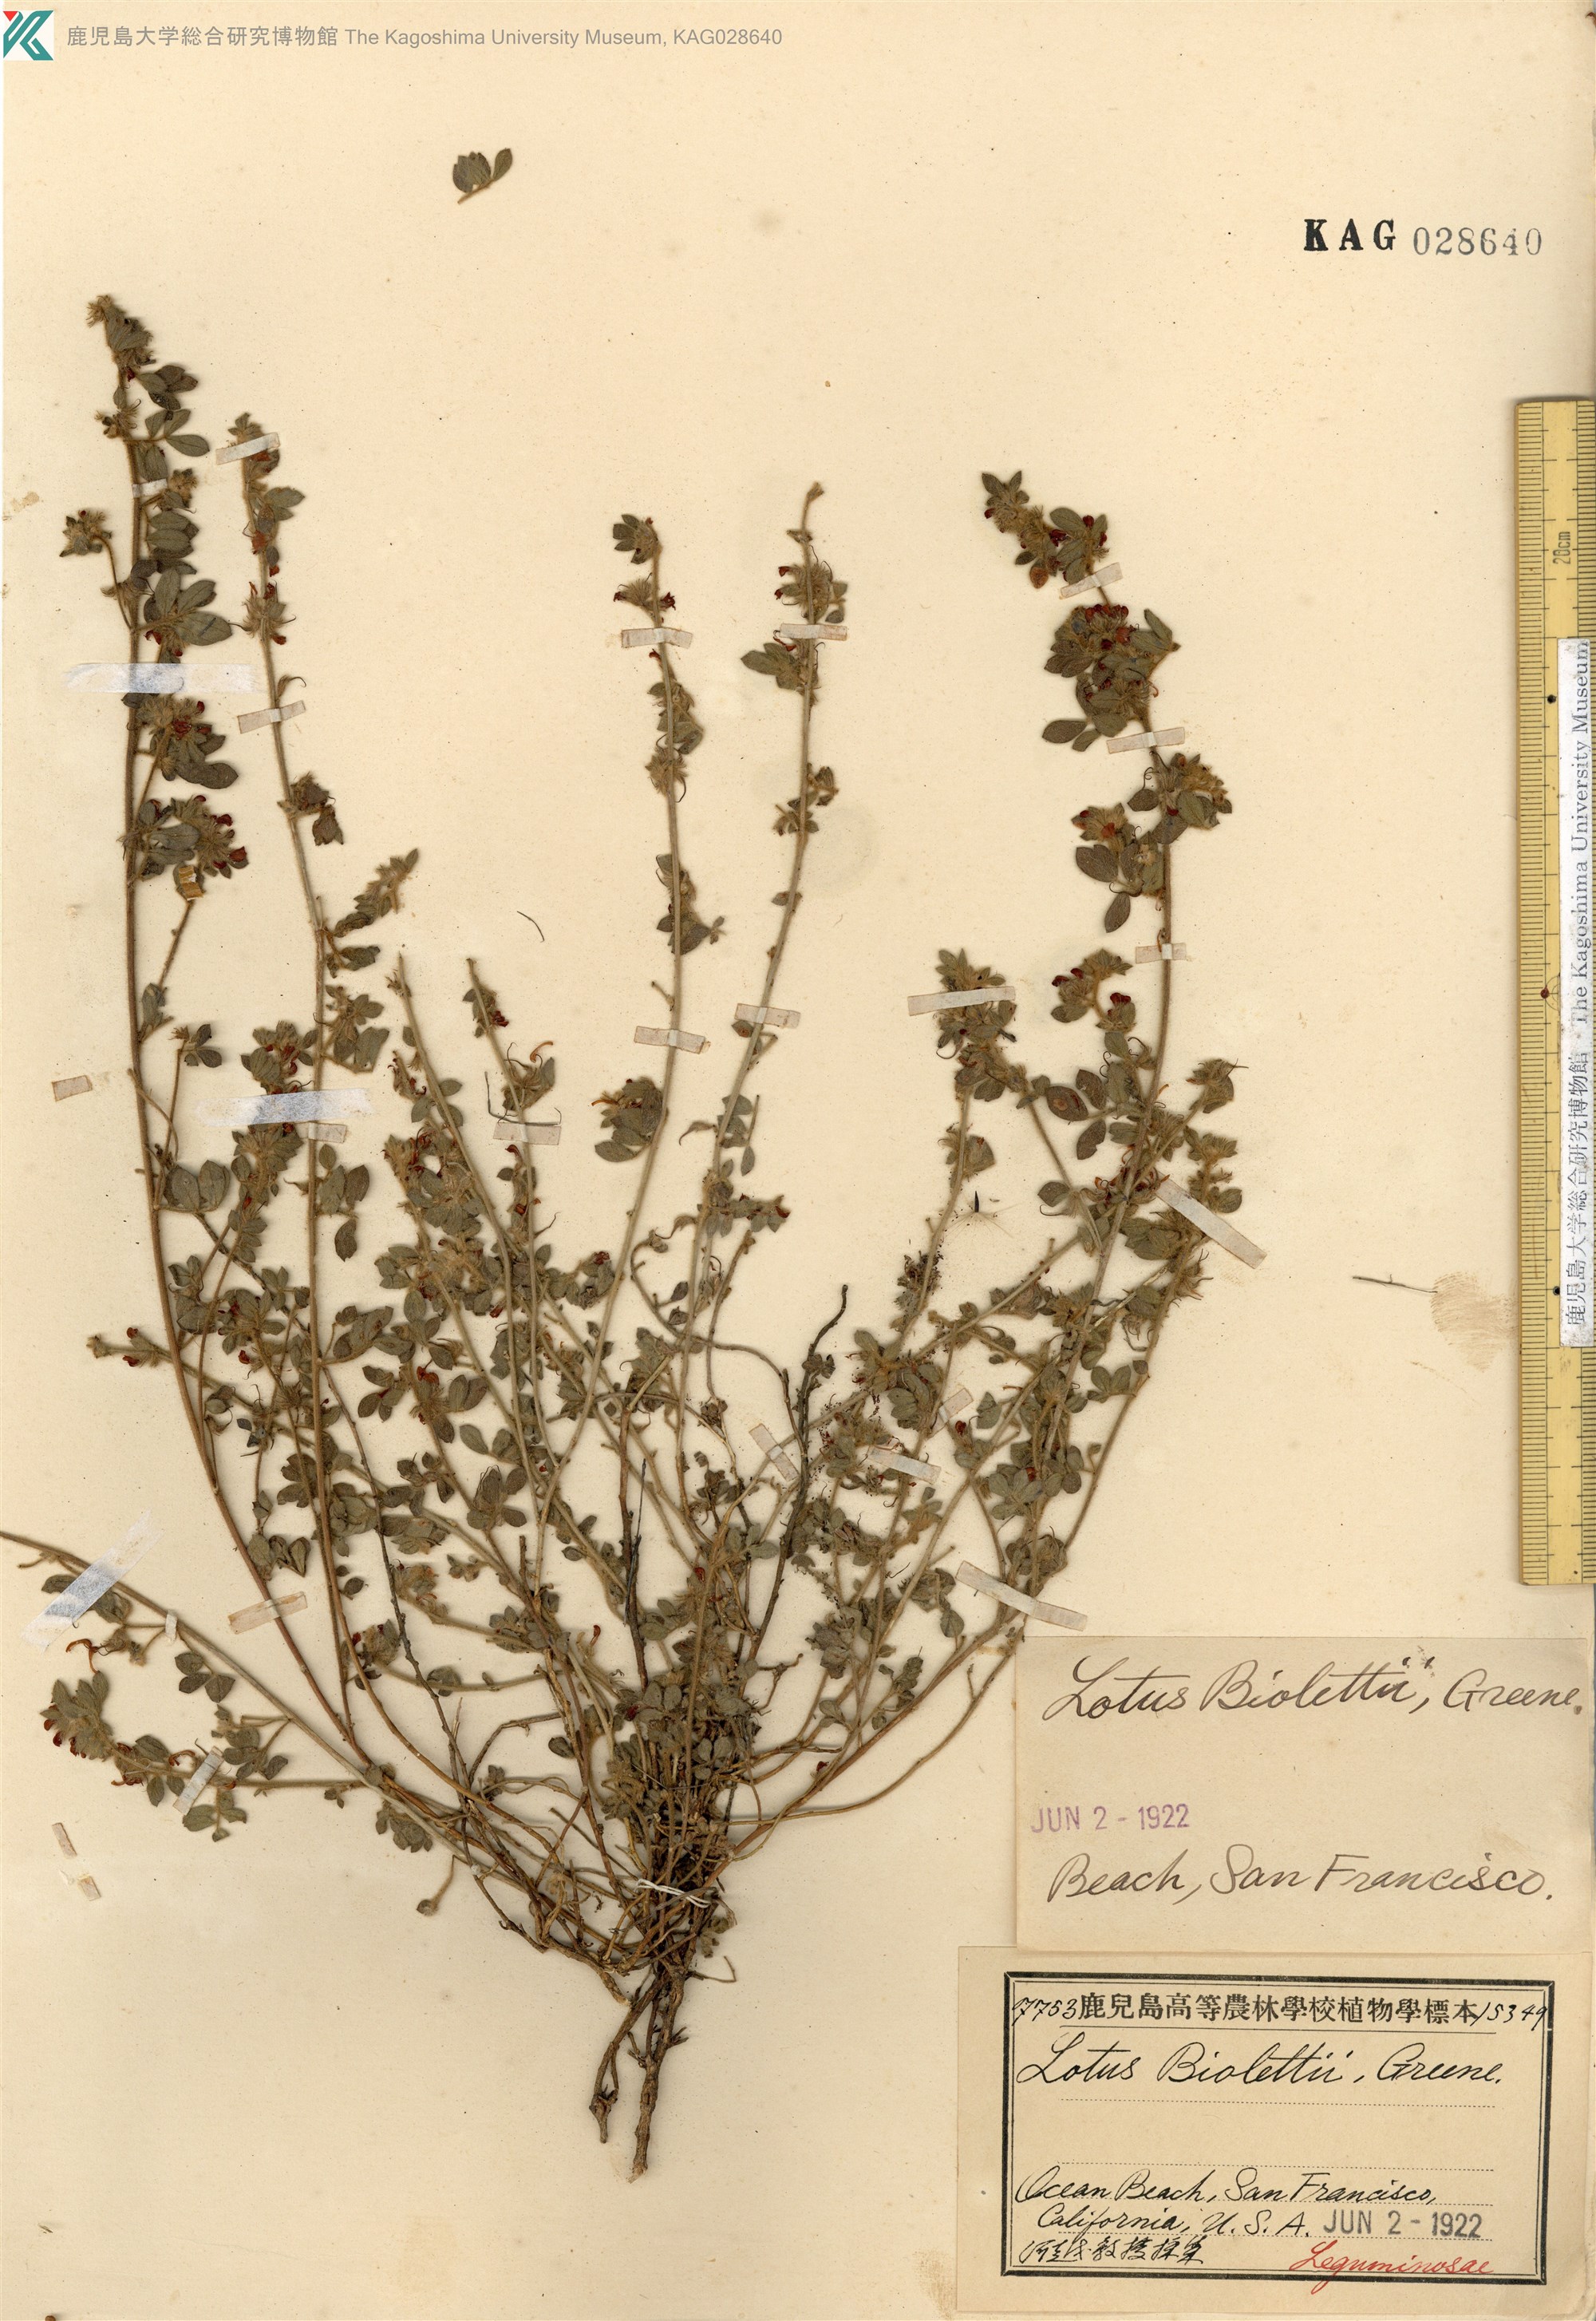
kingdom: Plantae
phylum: Tracheophyta
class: Magnoliopsida
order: Fabales
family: Fabaceae
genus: Acmispon
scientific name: Acmispon junceus
